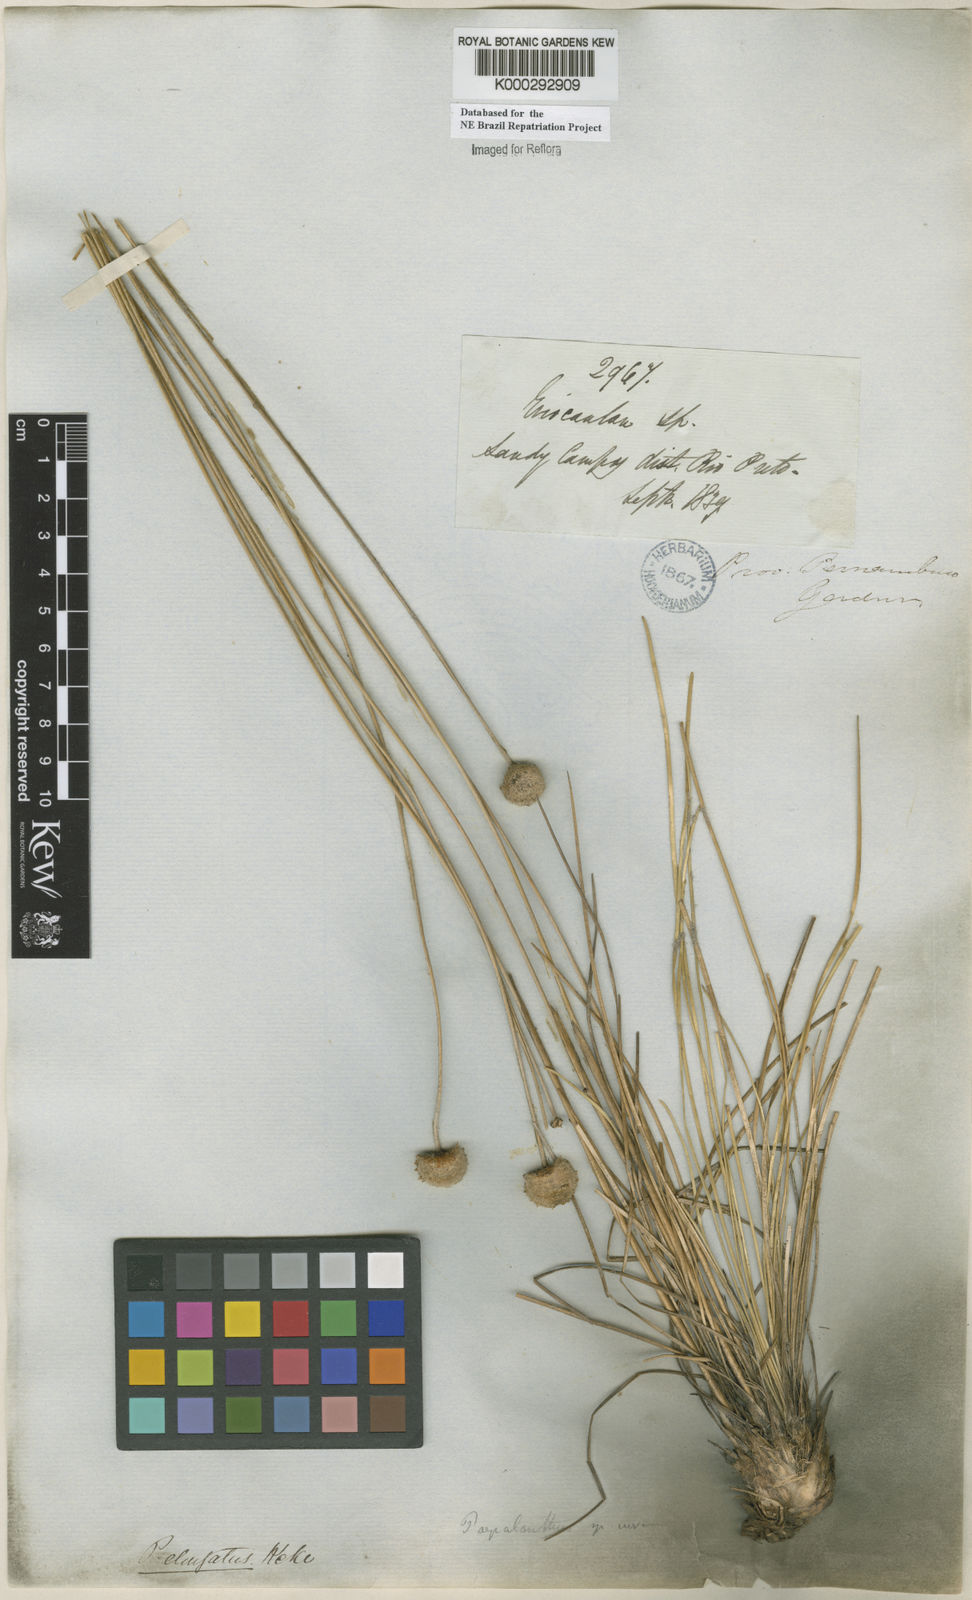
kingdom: Plantae
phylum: Tracheophyta
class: Liliopsida
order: Poales
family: Eriocaulaceae
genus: Paepalanthus
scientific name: Paepalanthus
